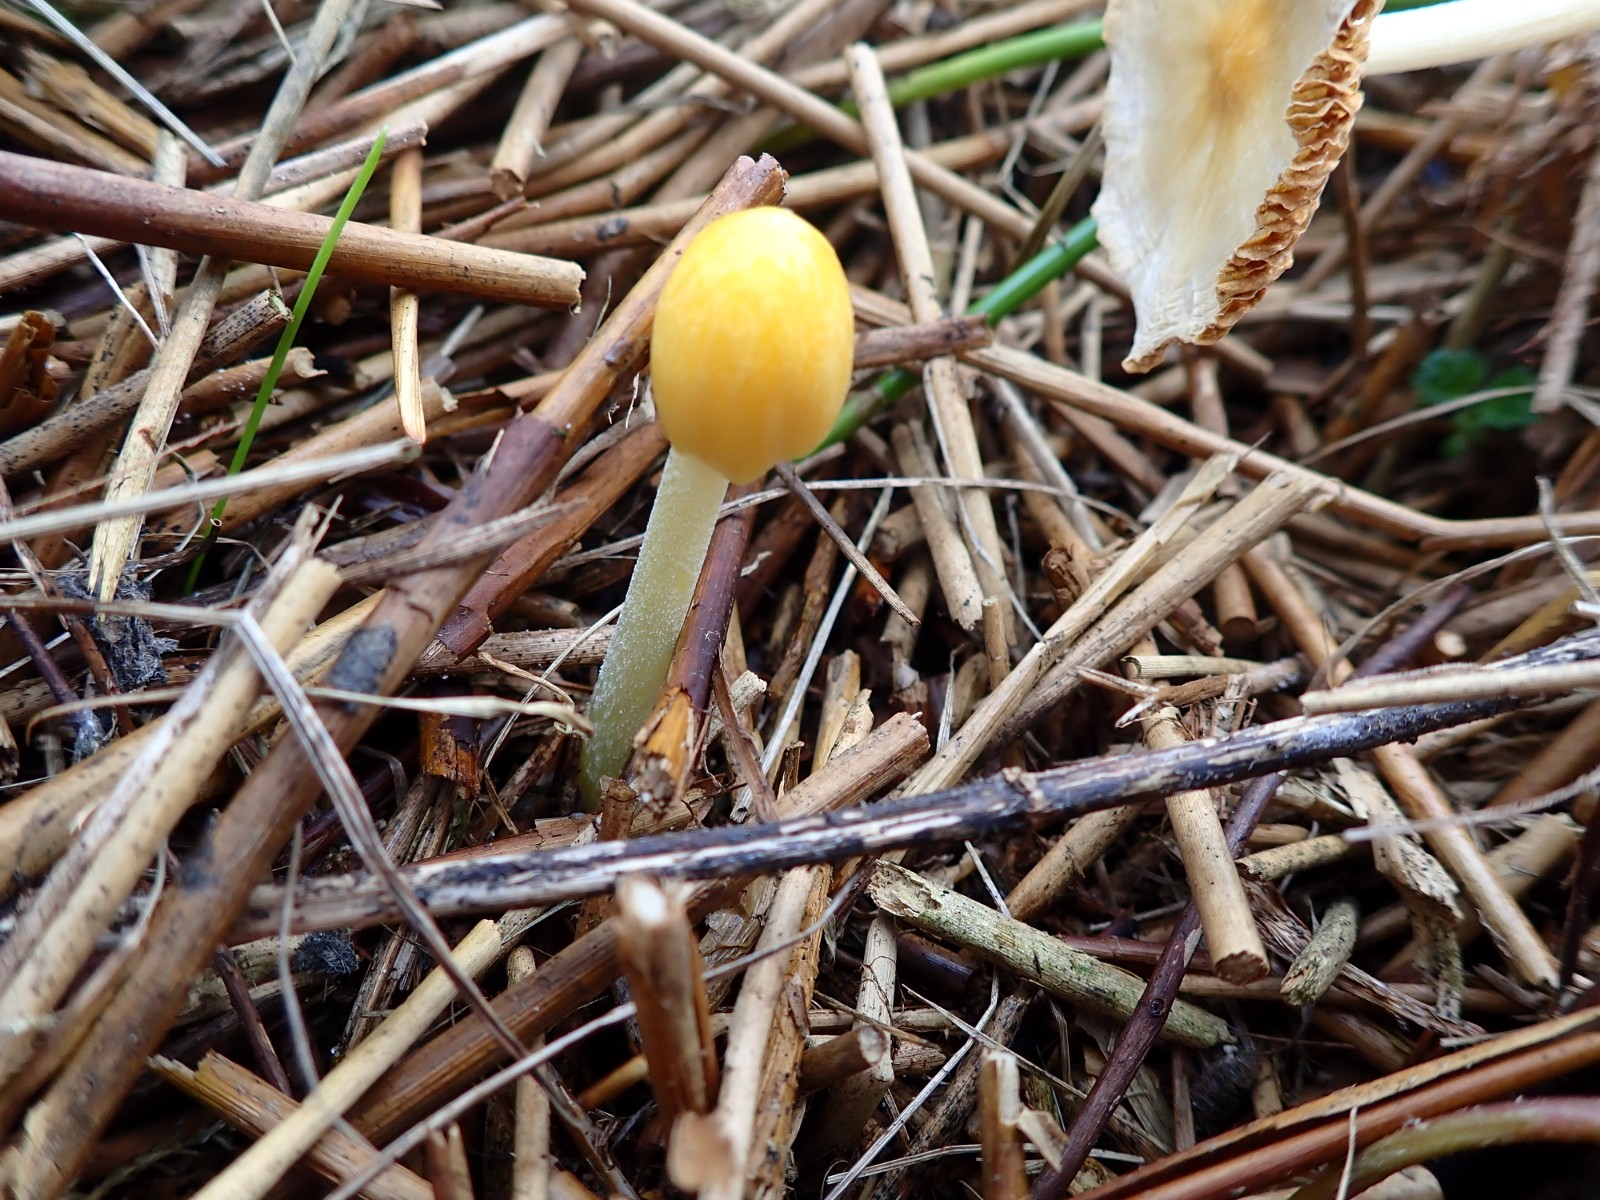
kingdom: Fungi
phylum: Basidiomycota
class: Agaricomycetes
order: Agaricales
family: Bolbitiaceae
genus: Bolbitius
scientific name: Bolbitius titubans
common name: almindelig gulhat
